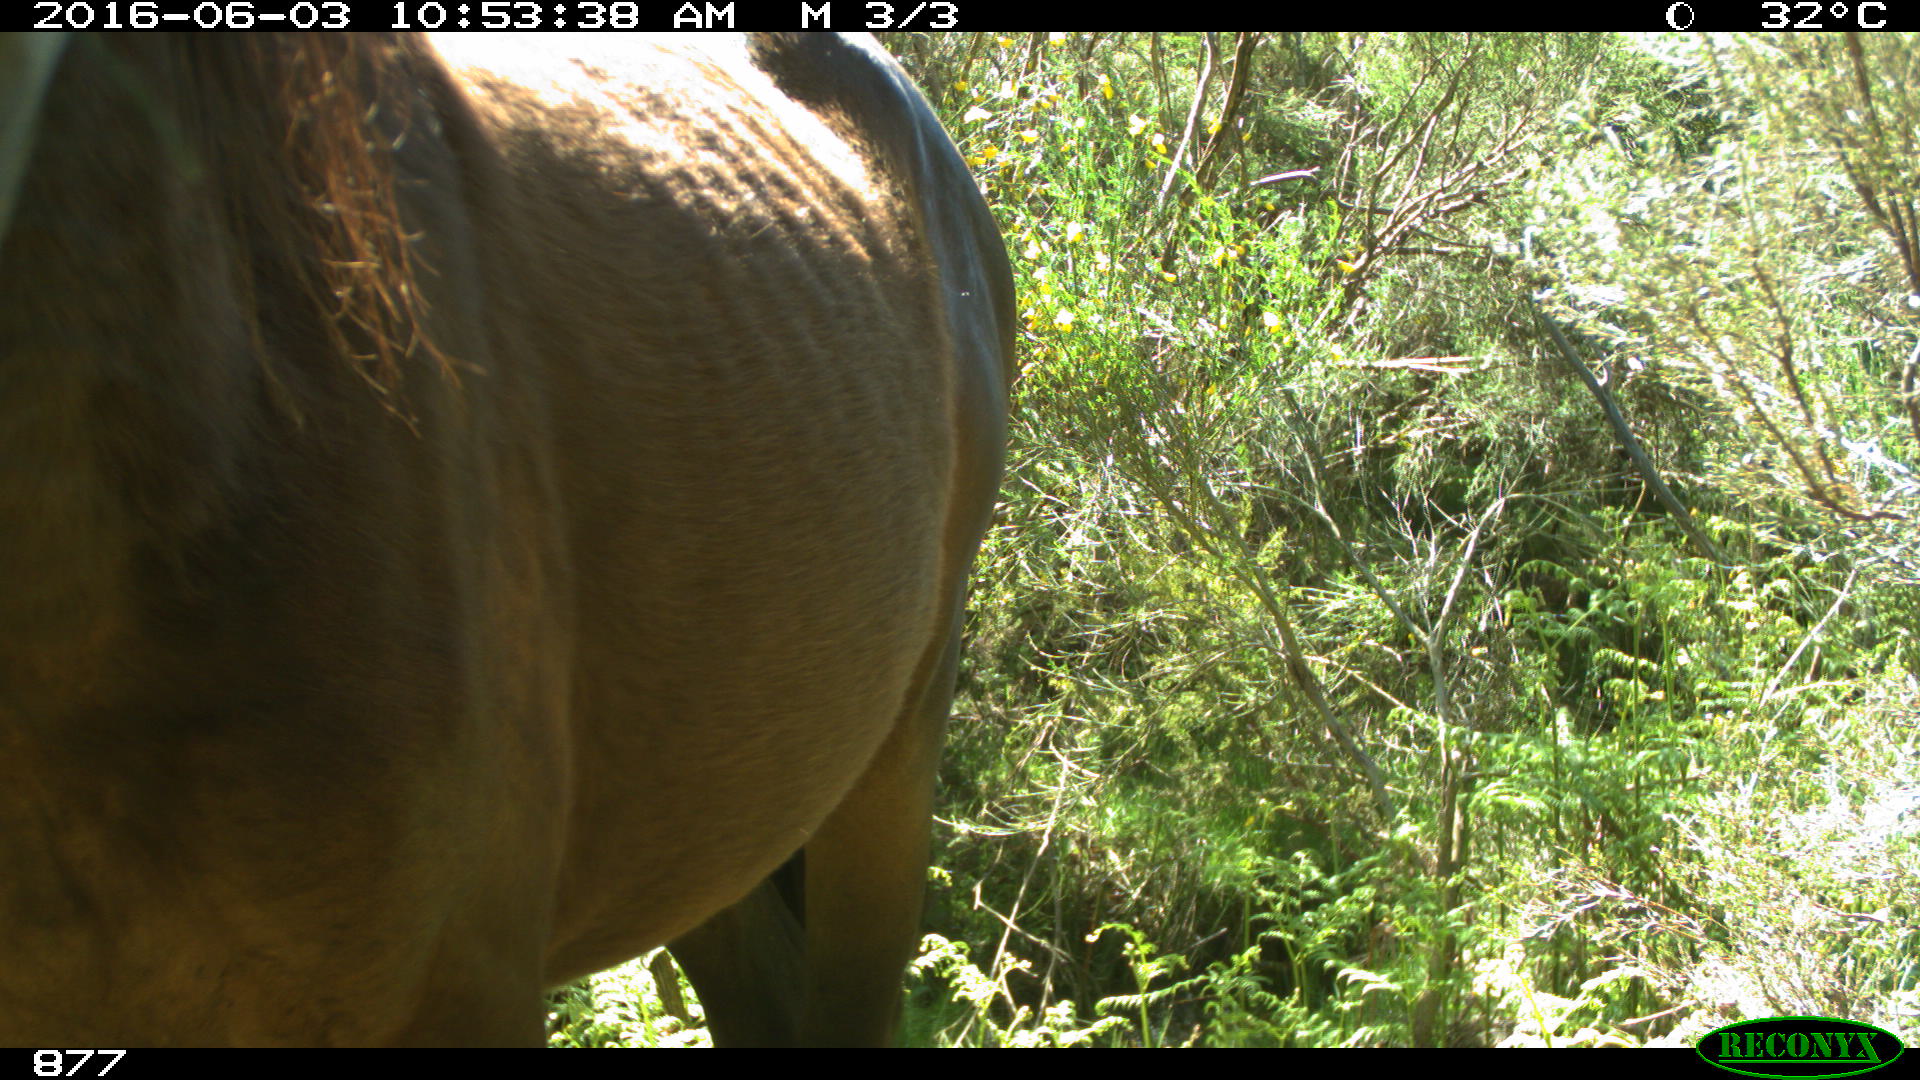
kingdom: Animalia
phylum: Chordata
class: Mammalia
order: Perissodactyla
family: Equidae
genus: Equus
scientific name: Equus caballus
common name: Horse
